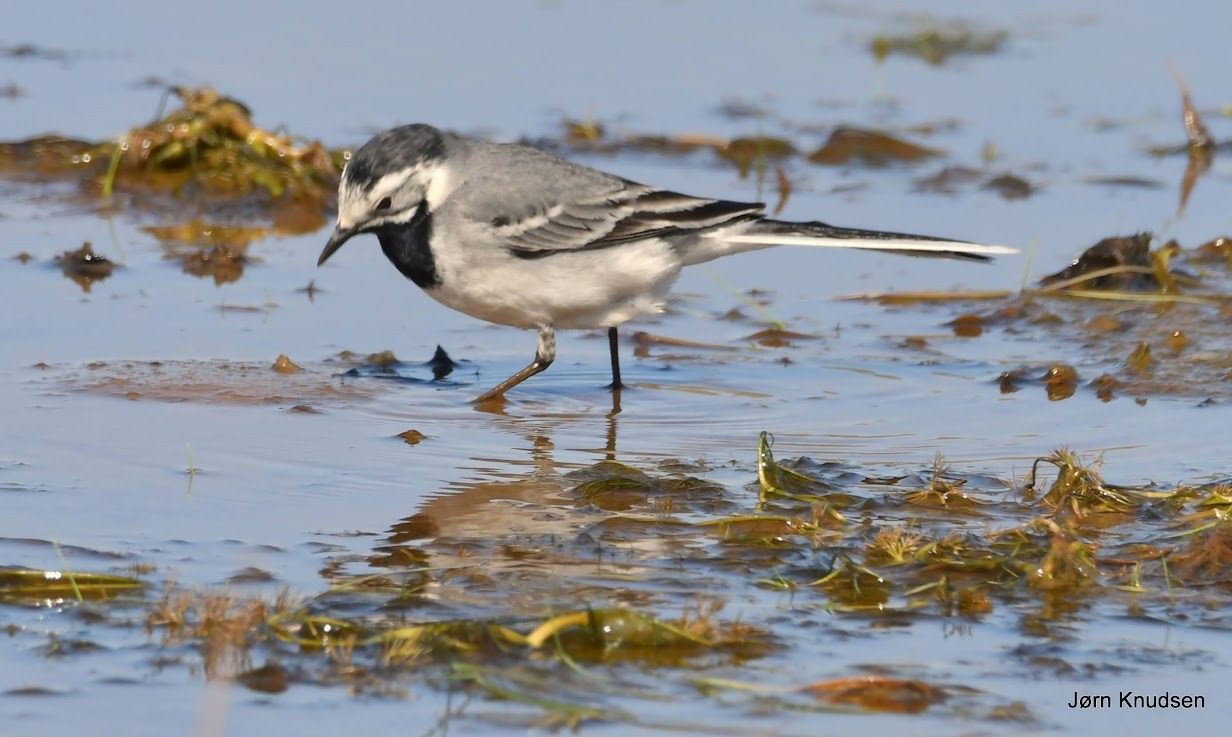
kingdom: Animalia
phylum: Chordata
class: Aves
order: Passeriformes
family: Motacillidae
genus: Motacilla
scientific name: Motacilla alba
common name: Hvid vipstjert
